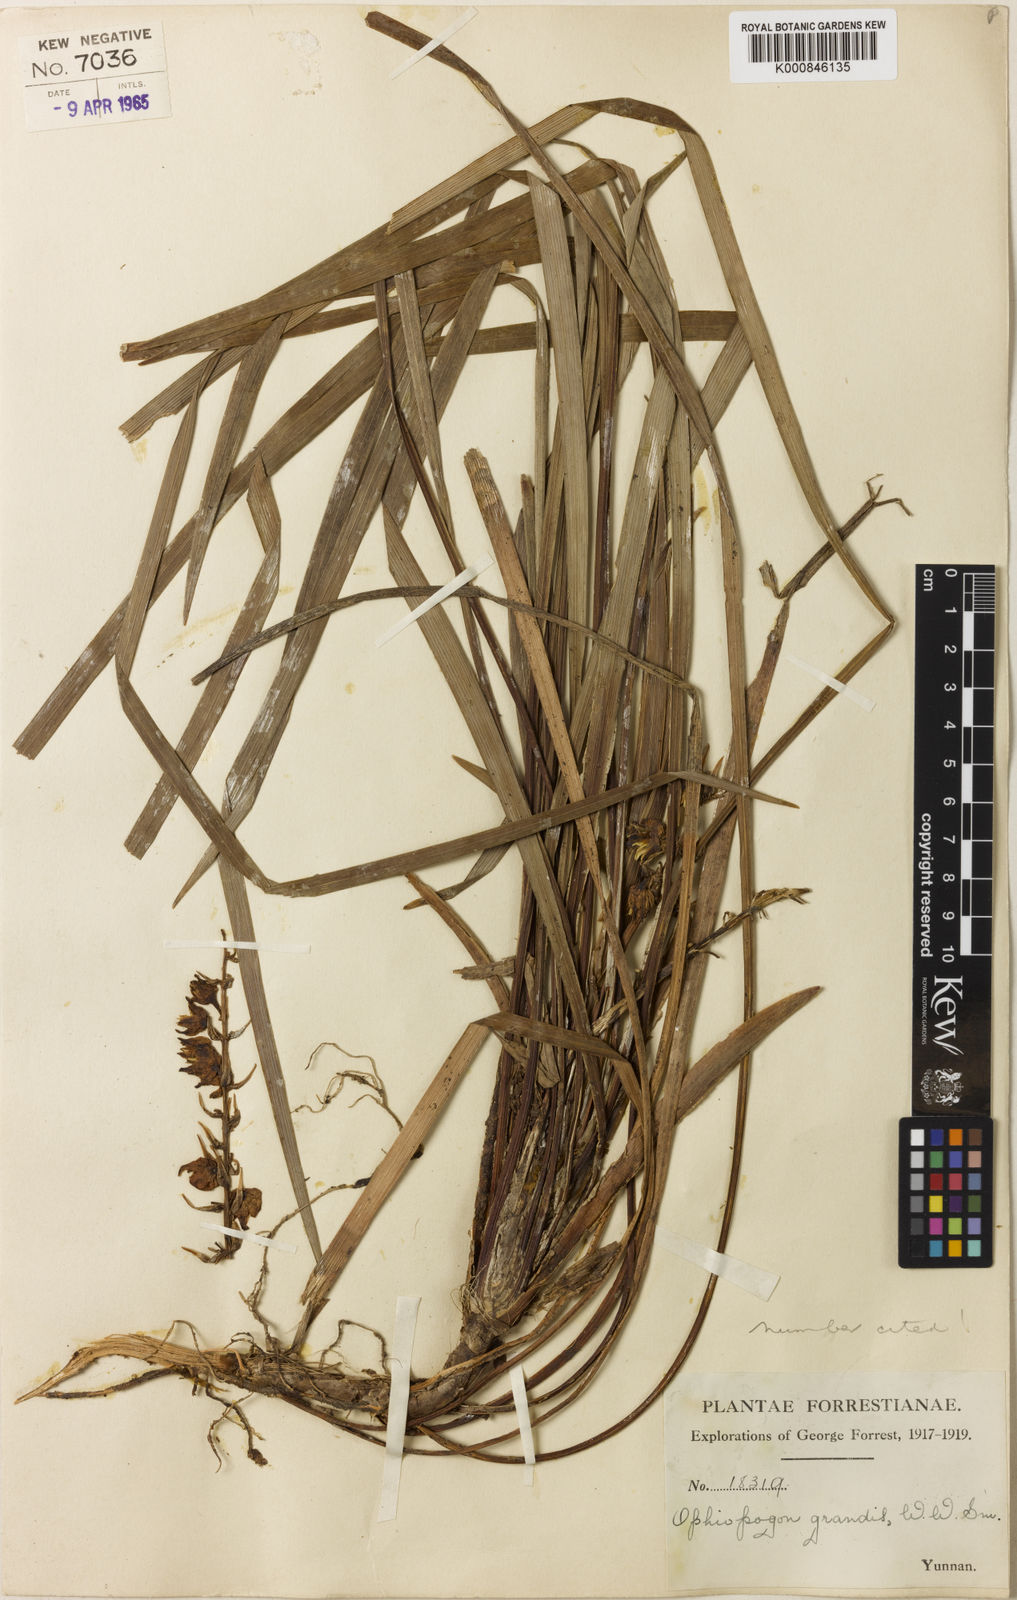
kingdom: Plantae
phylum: Tracheophyta
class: Liliopsida
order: Asparagales
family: Asparagaceae
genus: Ophiopogon
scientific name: Ophiopogon grandis
